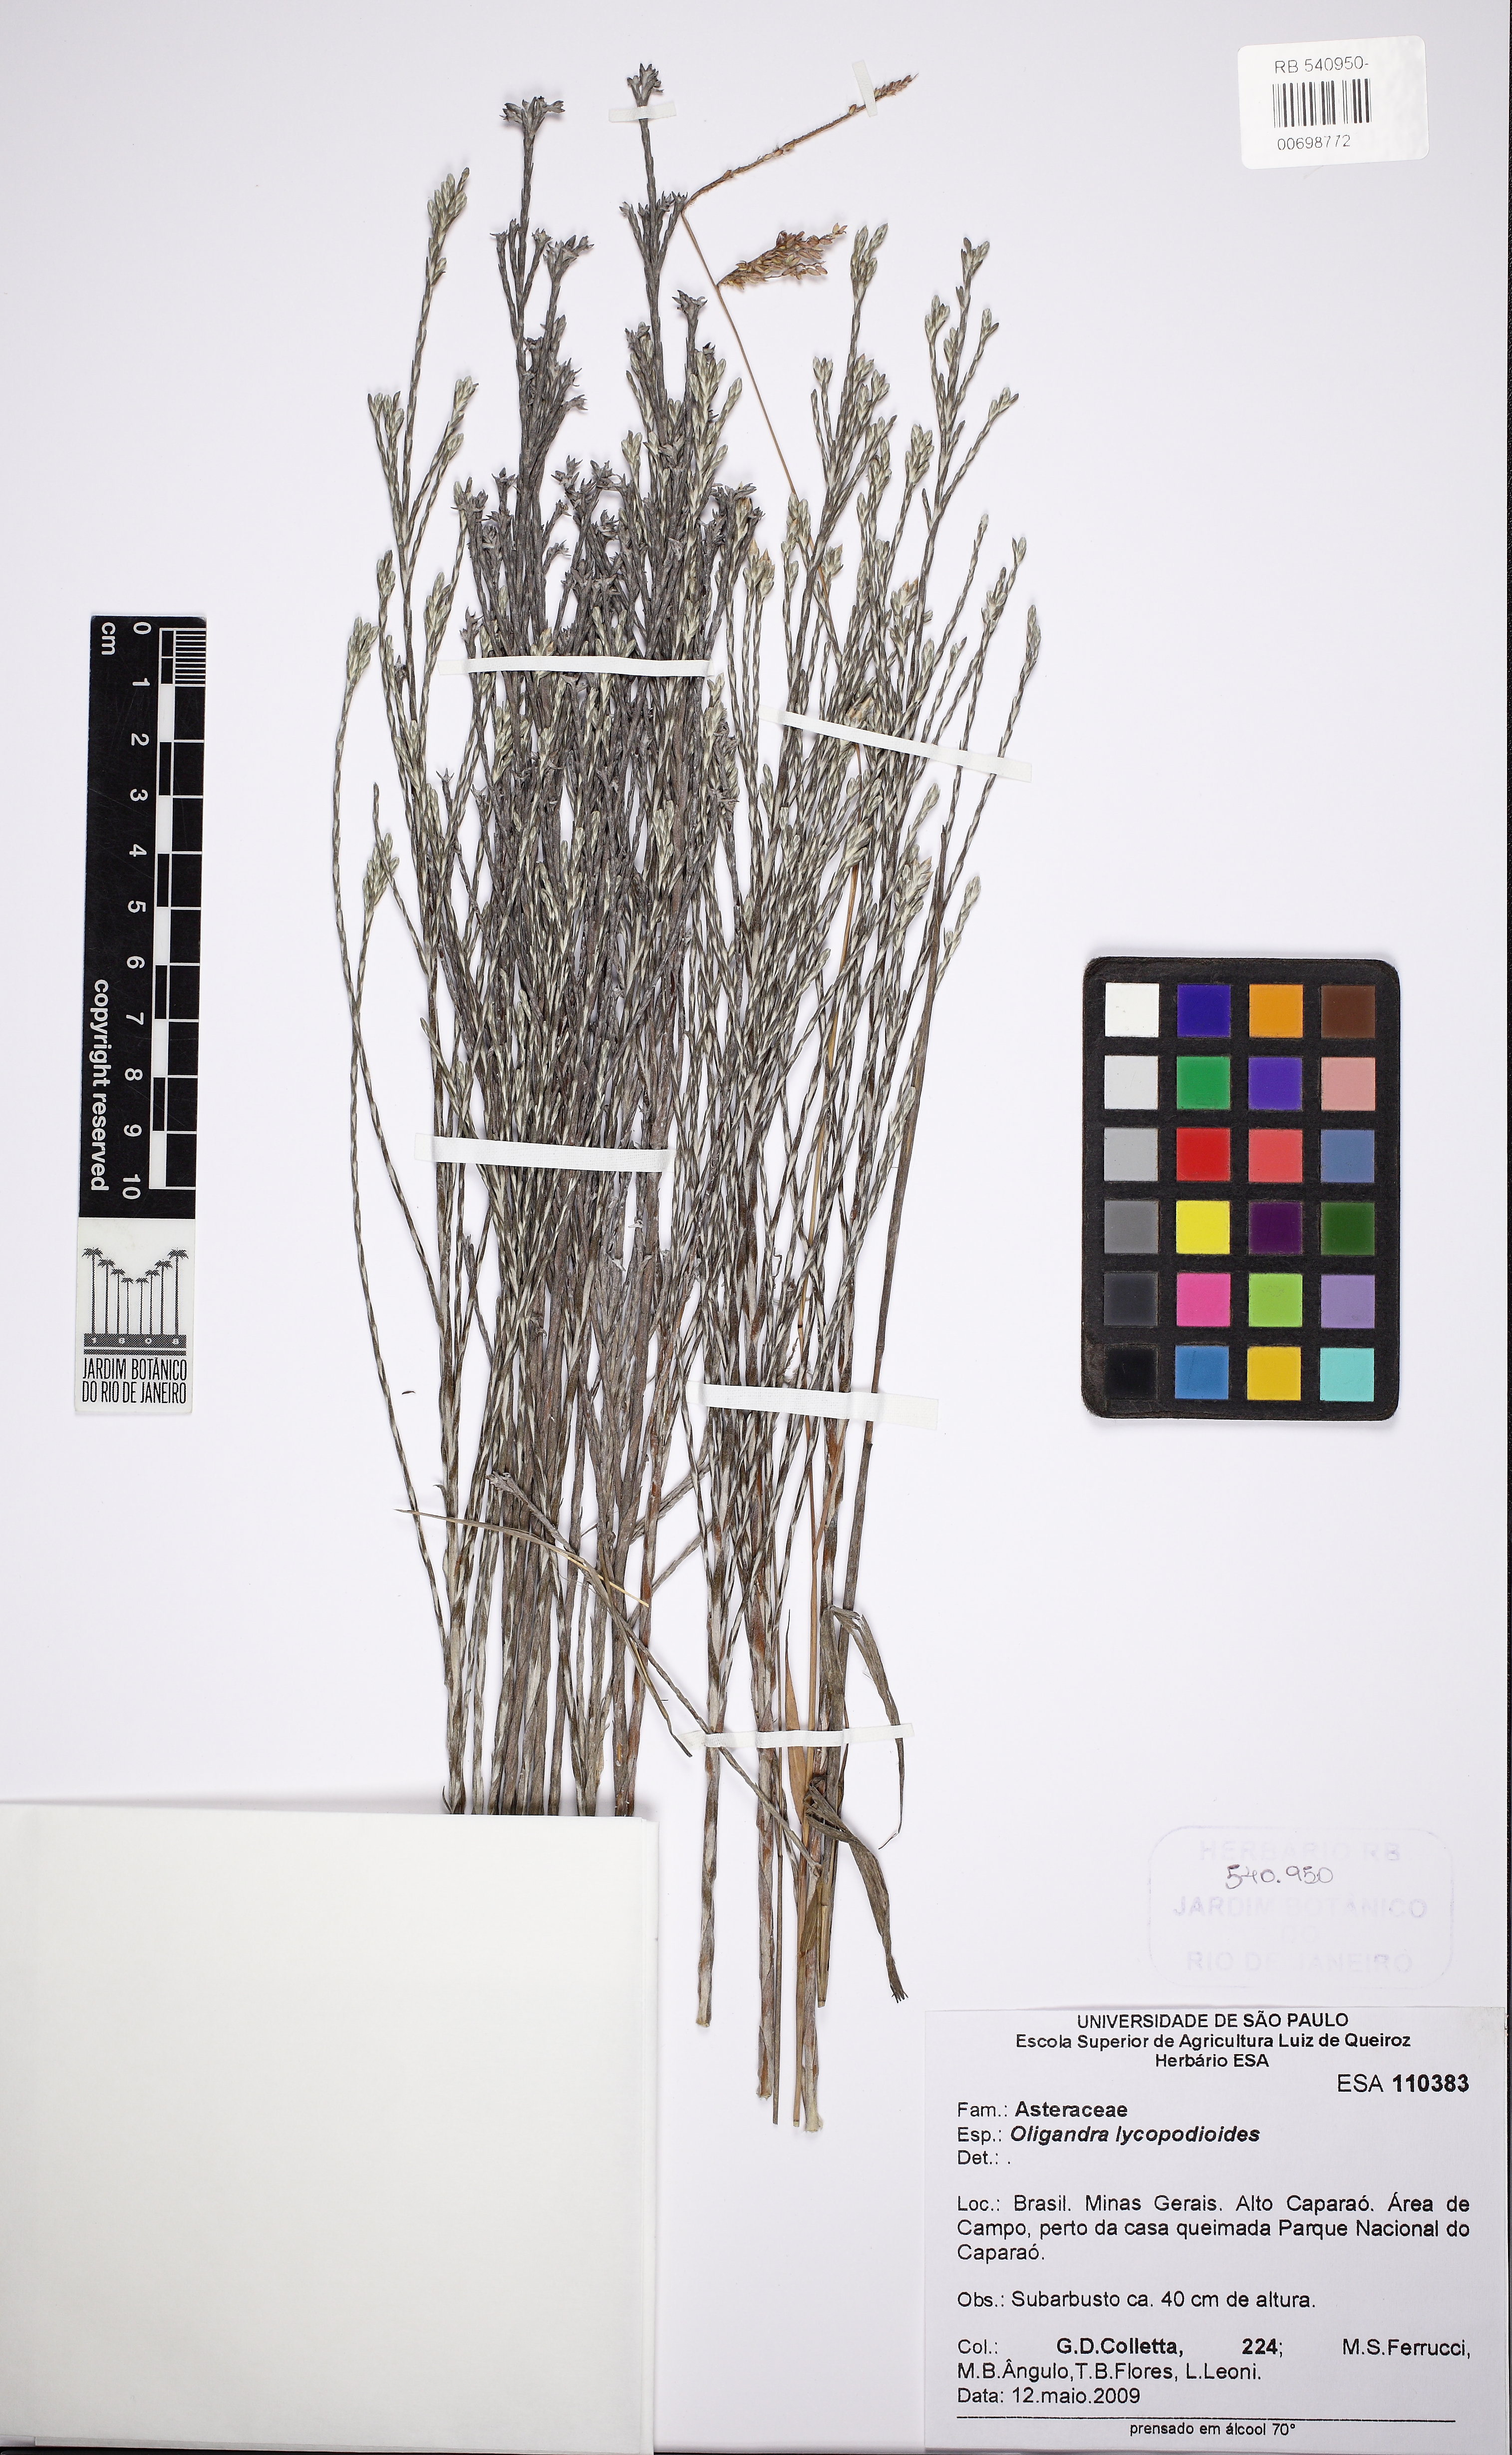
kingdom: Plantae
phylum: Tracheophyta
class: Magnoliopsida
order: Asterales
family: Asteraceae
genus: Lucilia
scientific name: Lucilia lycopodioides
